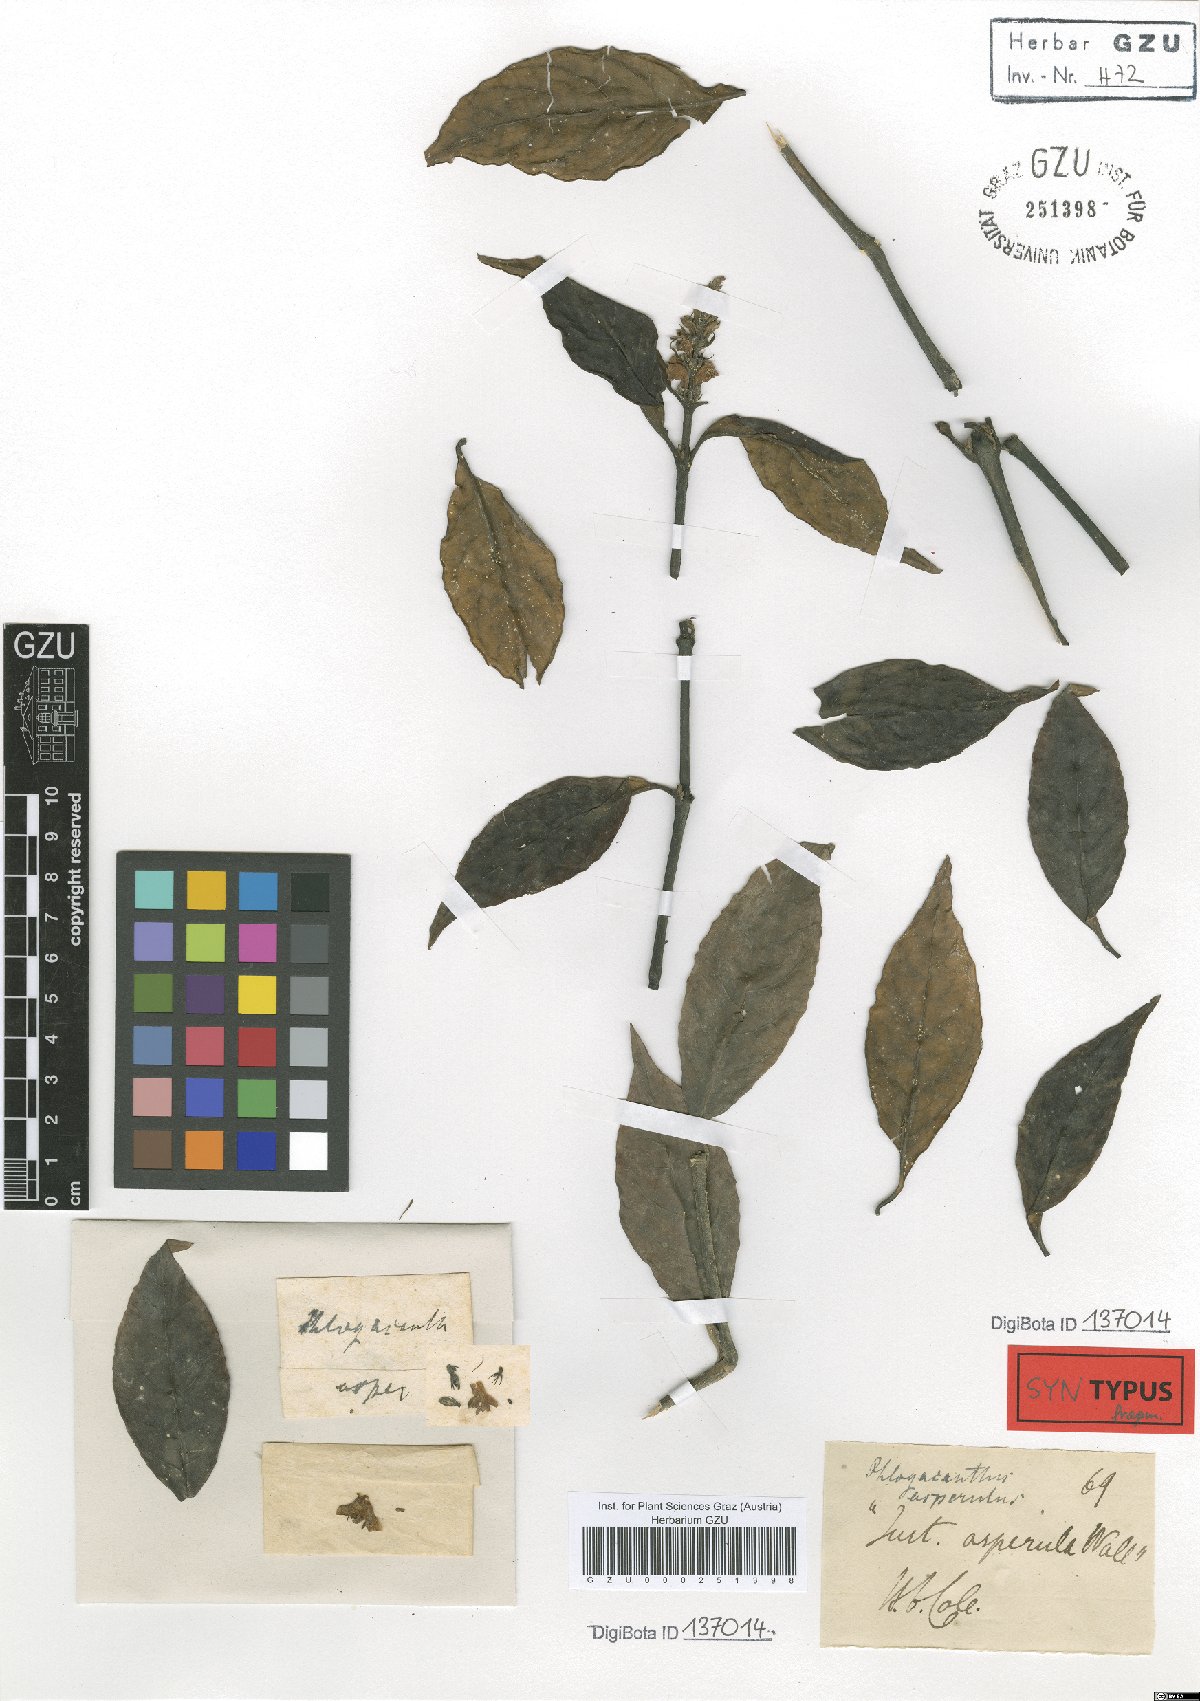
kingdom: Plantae
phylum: Tracheophyta
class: Magnoliopsida
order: Lamiales
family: Acanthaceae
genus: Phlogacanthus
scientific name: Phlogacanthus vitellinus
